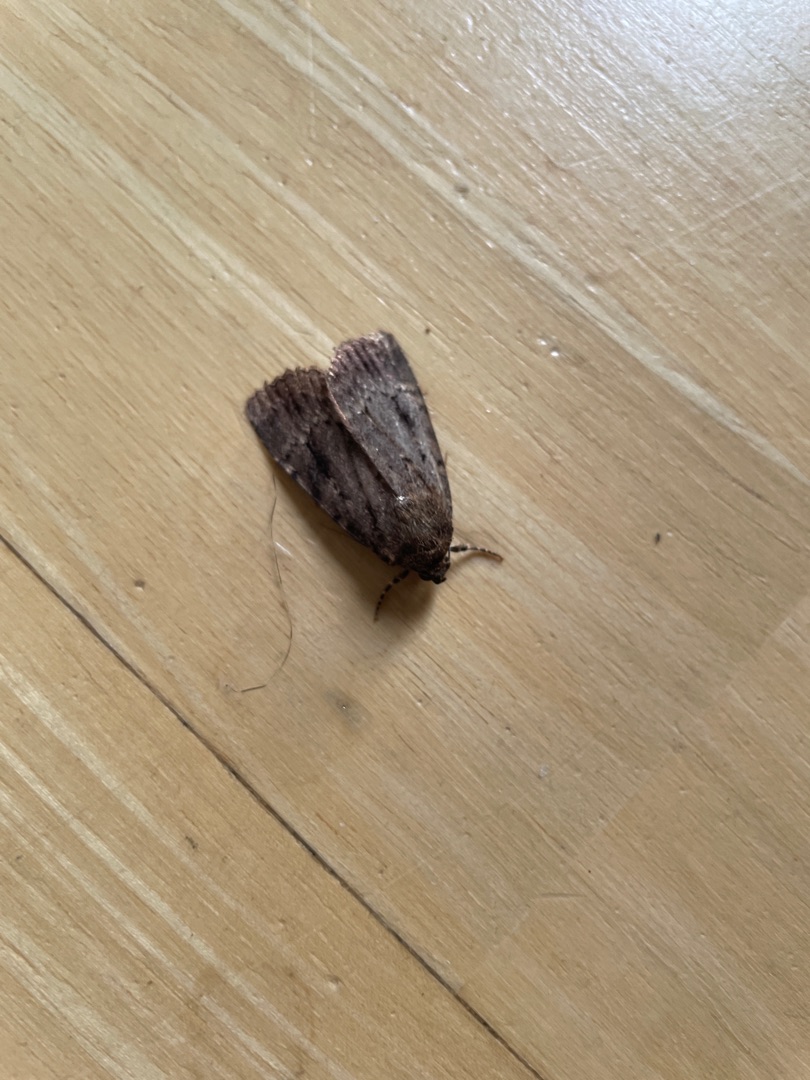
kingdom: Animalia
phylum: Arthropoda
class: Insecta
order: Lepidoptera
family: Noctuidae
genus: Amphipyra
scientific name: Amphipyra pyramidea
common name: Pyramideugle
